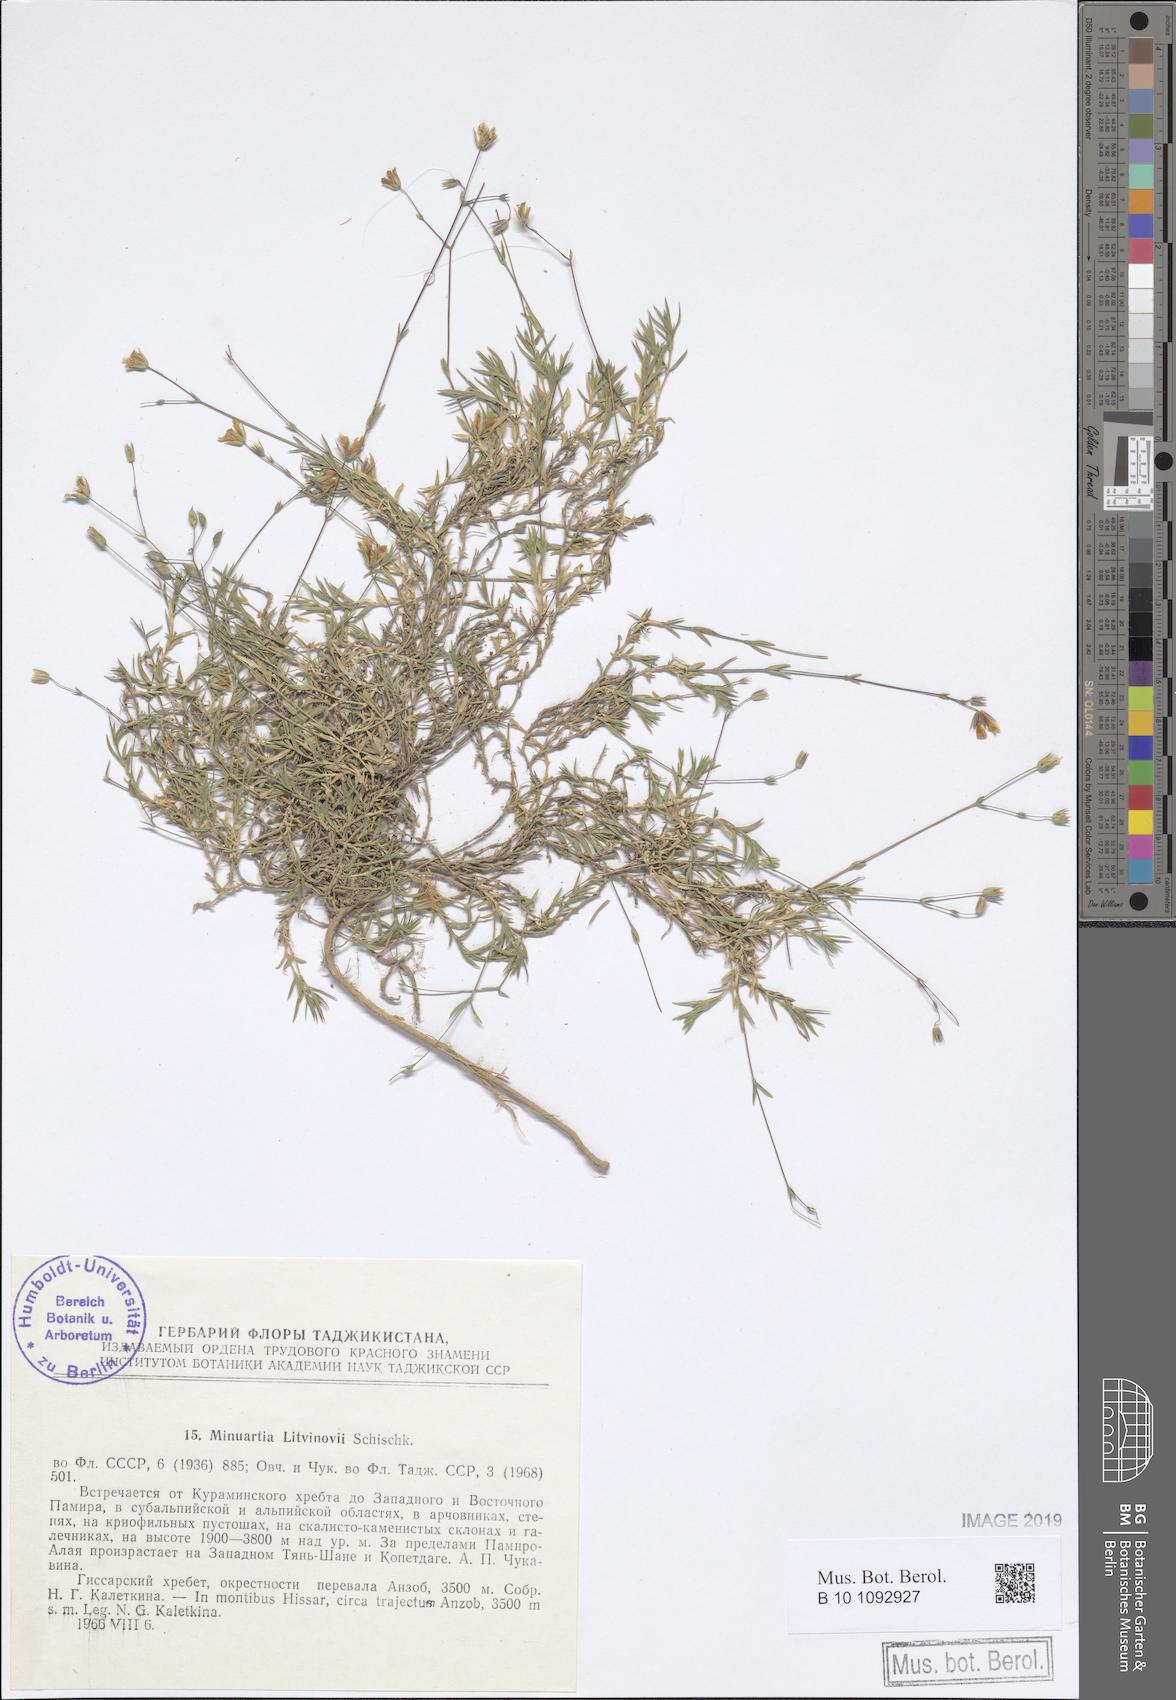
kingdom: Plantae
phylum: Tracheophyta
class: Magnoliopsida
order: Caryophyllales
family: Caryophyllaceae
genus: Sabulina
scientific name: Sabulina litwinowii
